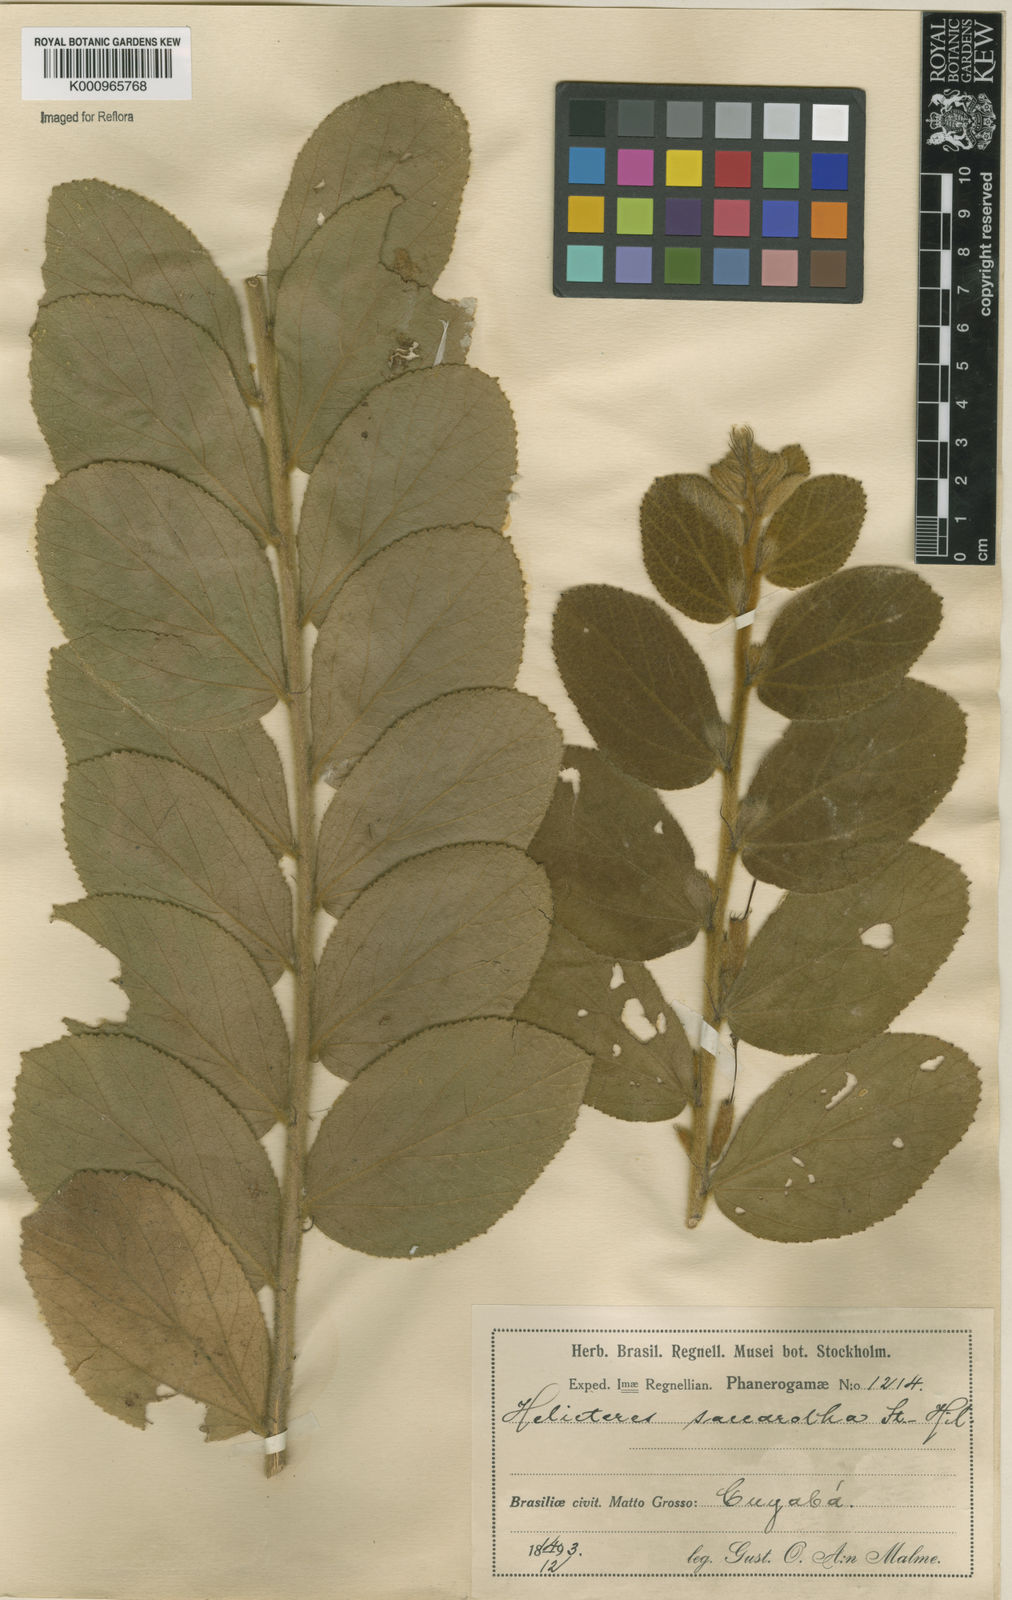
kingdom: Plantae
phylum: Tracheophyta
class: Magnoliopsida
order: Malvales
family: Malvaceae
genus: Helicteres
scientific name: Helicteres
